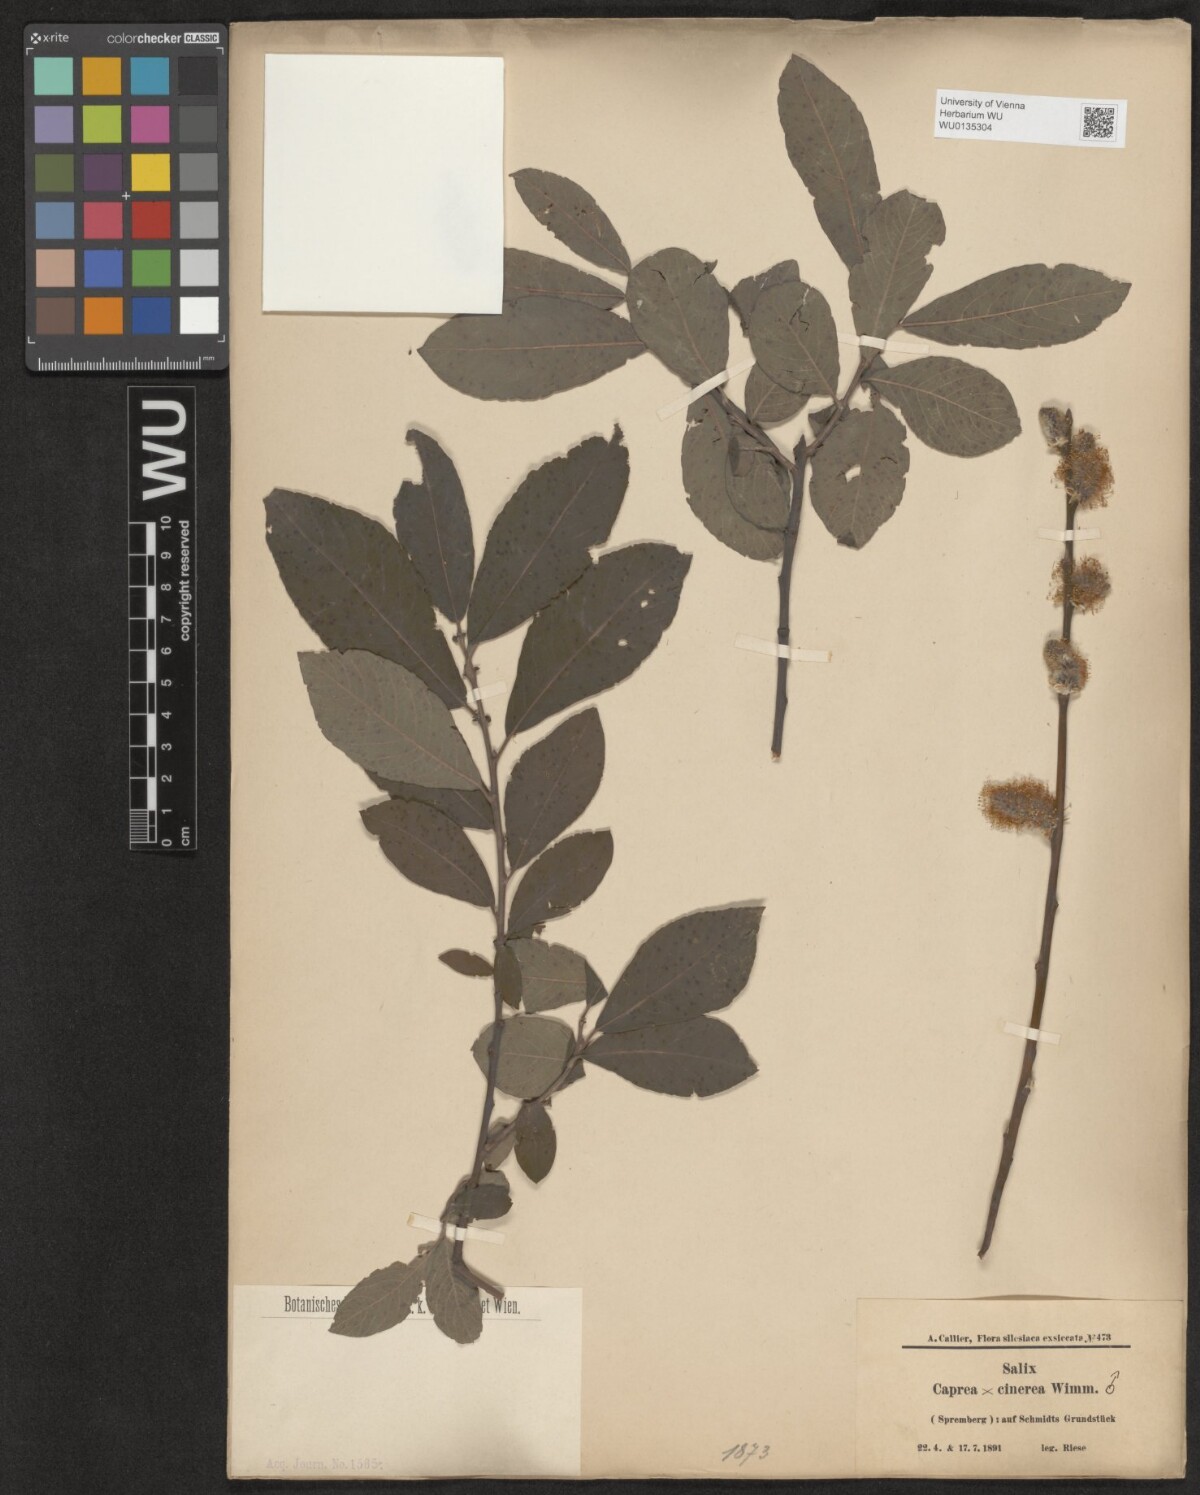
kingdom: Plantae
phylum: Tracheophyta
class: Magnoliopsida
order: Malpighiales
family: Salicaceae
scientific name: Salicaceae
